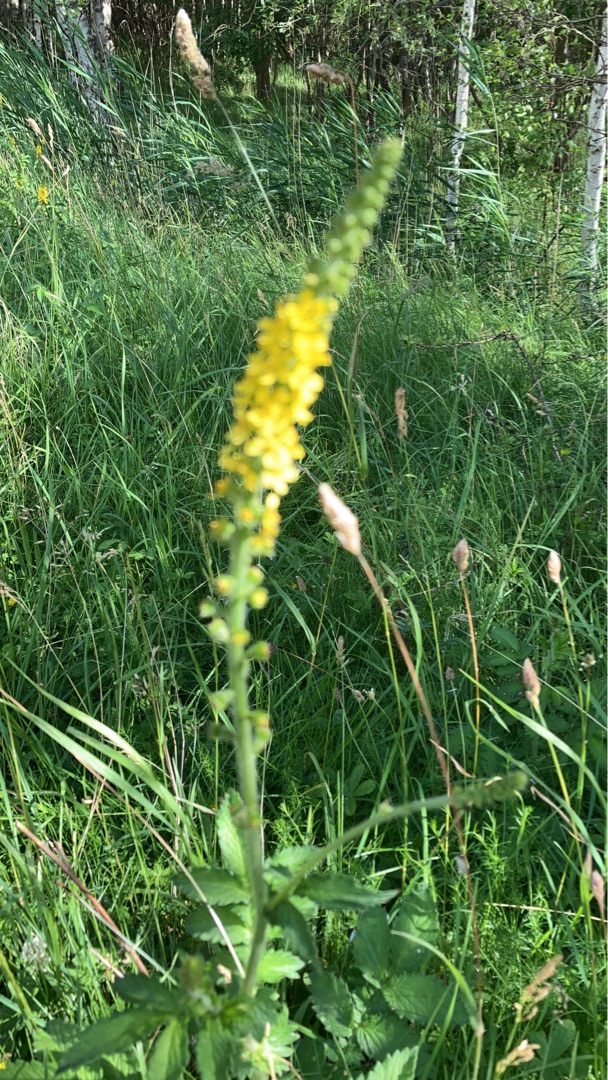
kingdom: Plantae
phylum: Tracheophyta
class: Magnoliopsida
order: Rosales
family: Rosaceae
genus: Agrimonia
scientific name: Agrimonia
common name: Agermåneslægten
